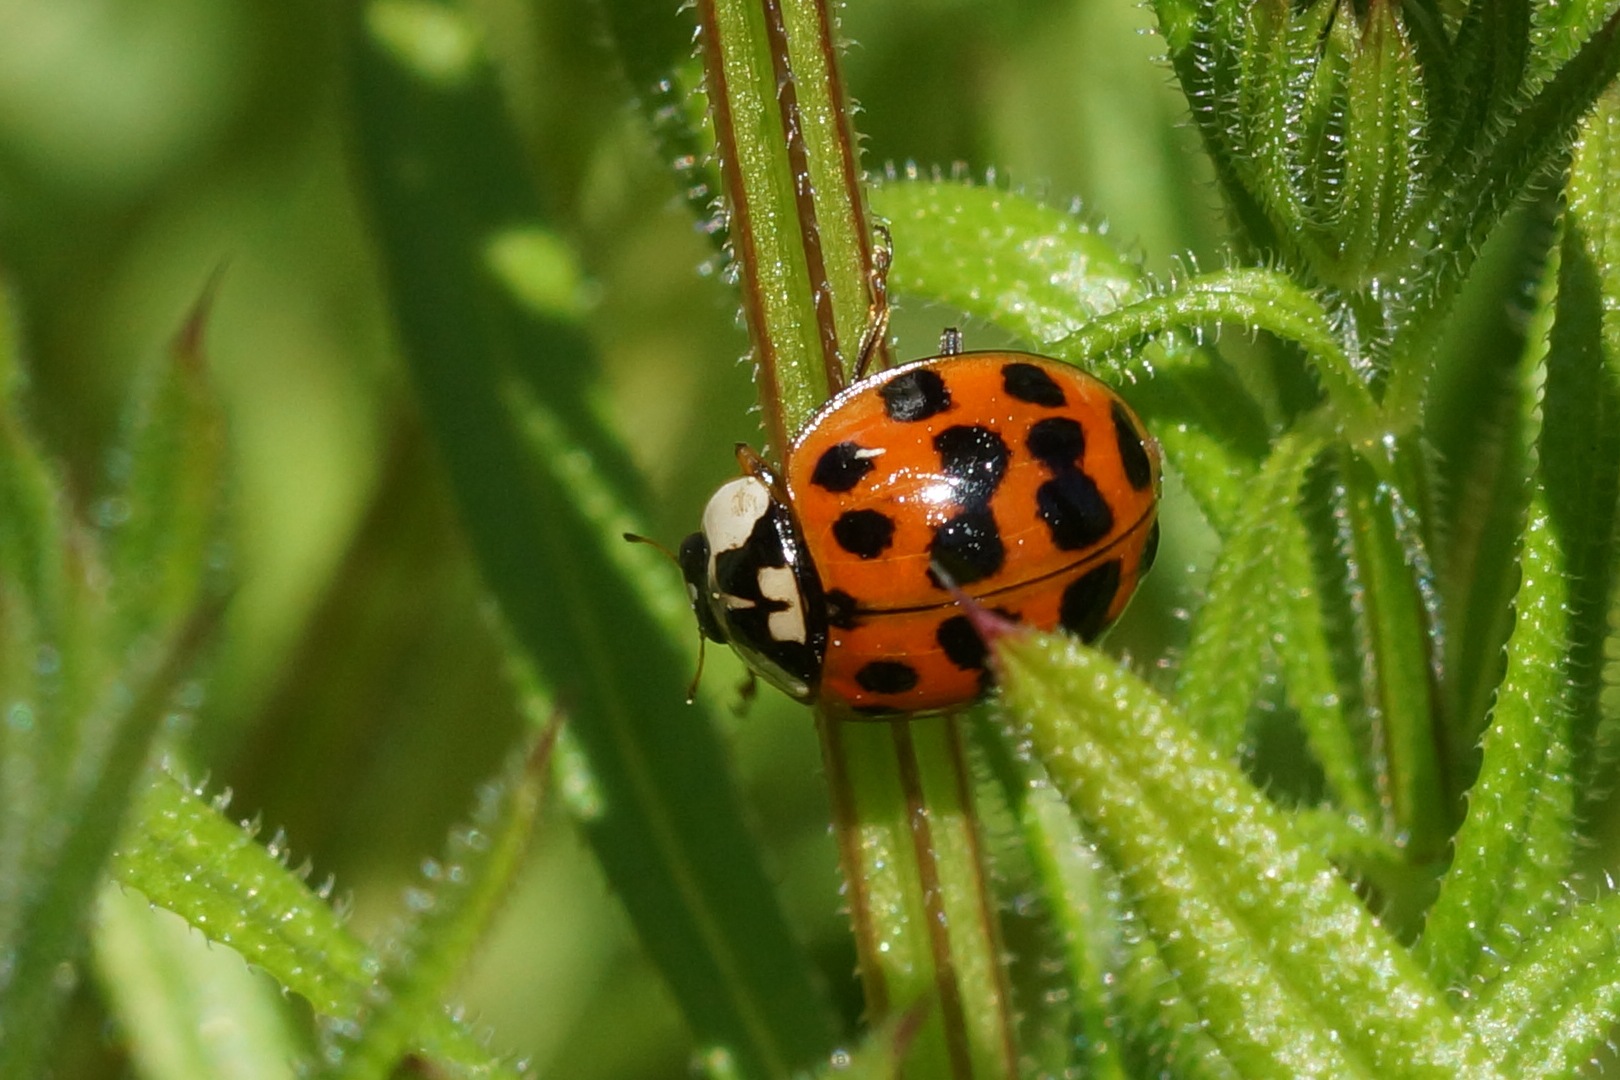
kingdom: Animalia
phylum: Arthropoda
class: Insecta
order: Coleoptera
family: Coccinellidae
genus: Harmonia
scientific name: Harmonia axyridis
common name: Harlekinmariehøne
